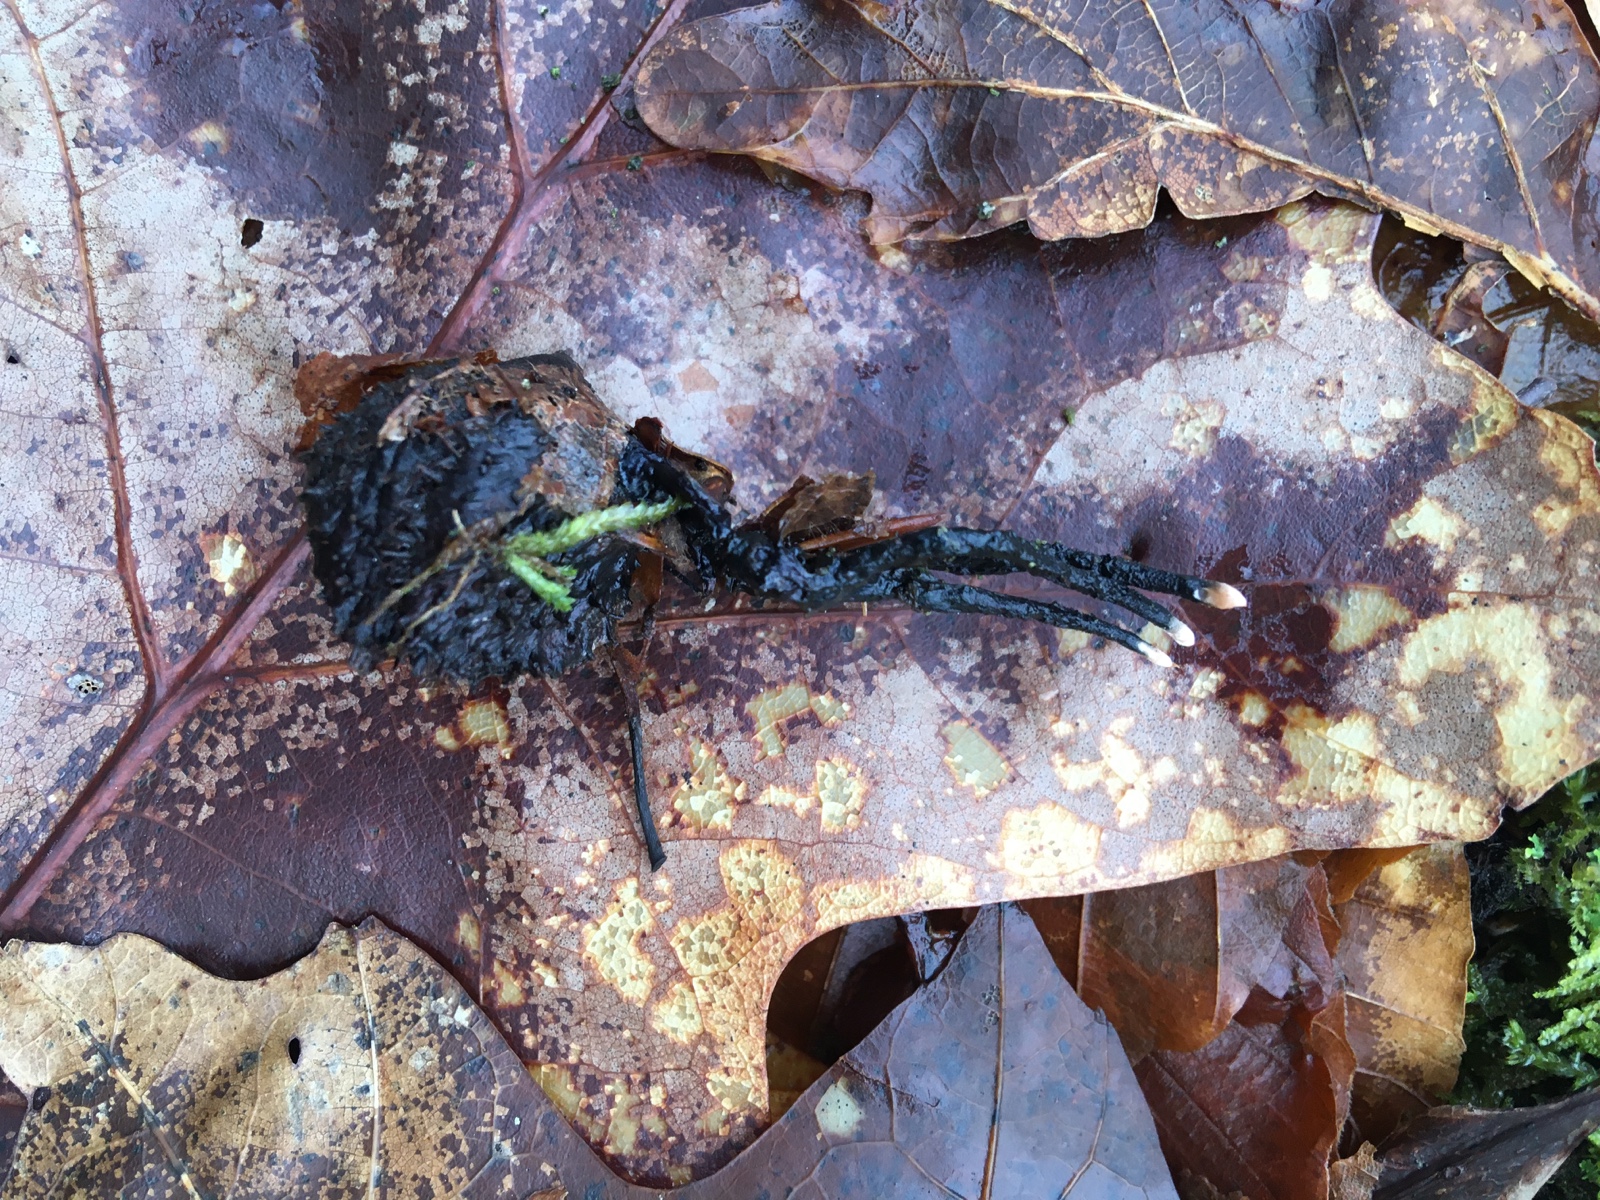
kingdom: Fungi
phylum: Ascomycota
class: Sordariomycetes
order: Xylariales
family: Xylariaceae
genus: Xylaria
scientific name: Xylaria carpophila
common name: bogskål-stødsvamp
